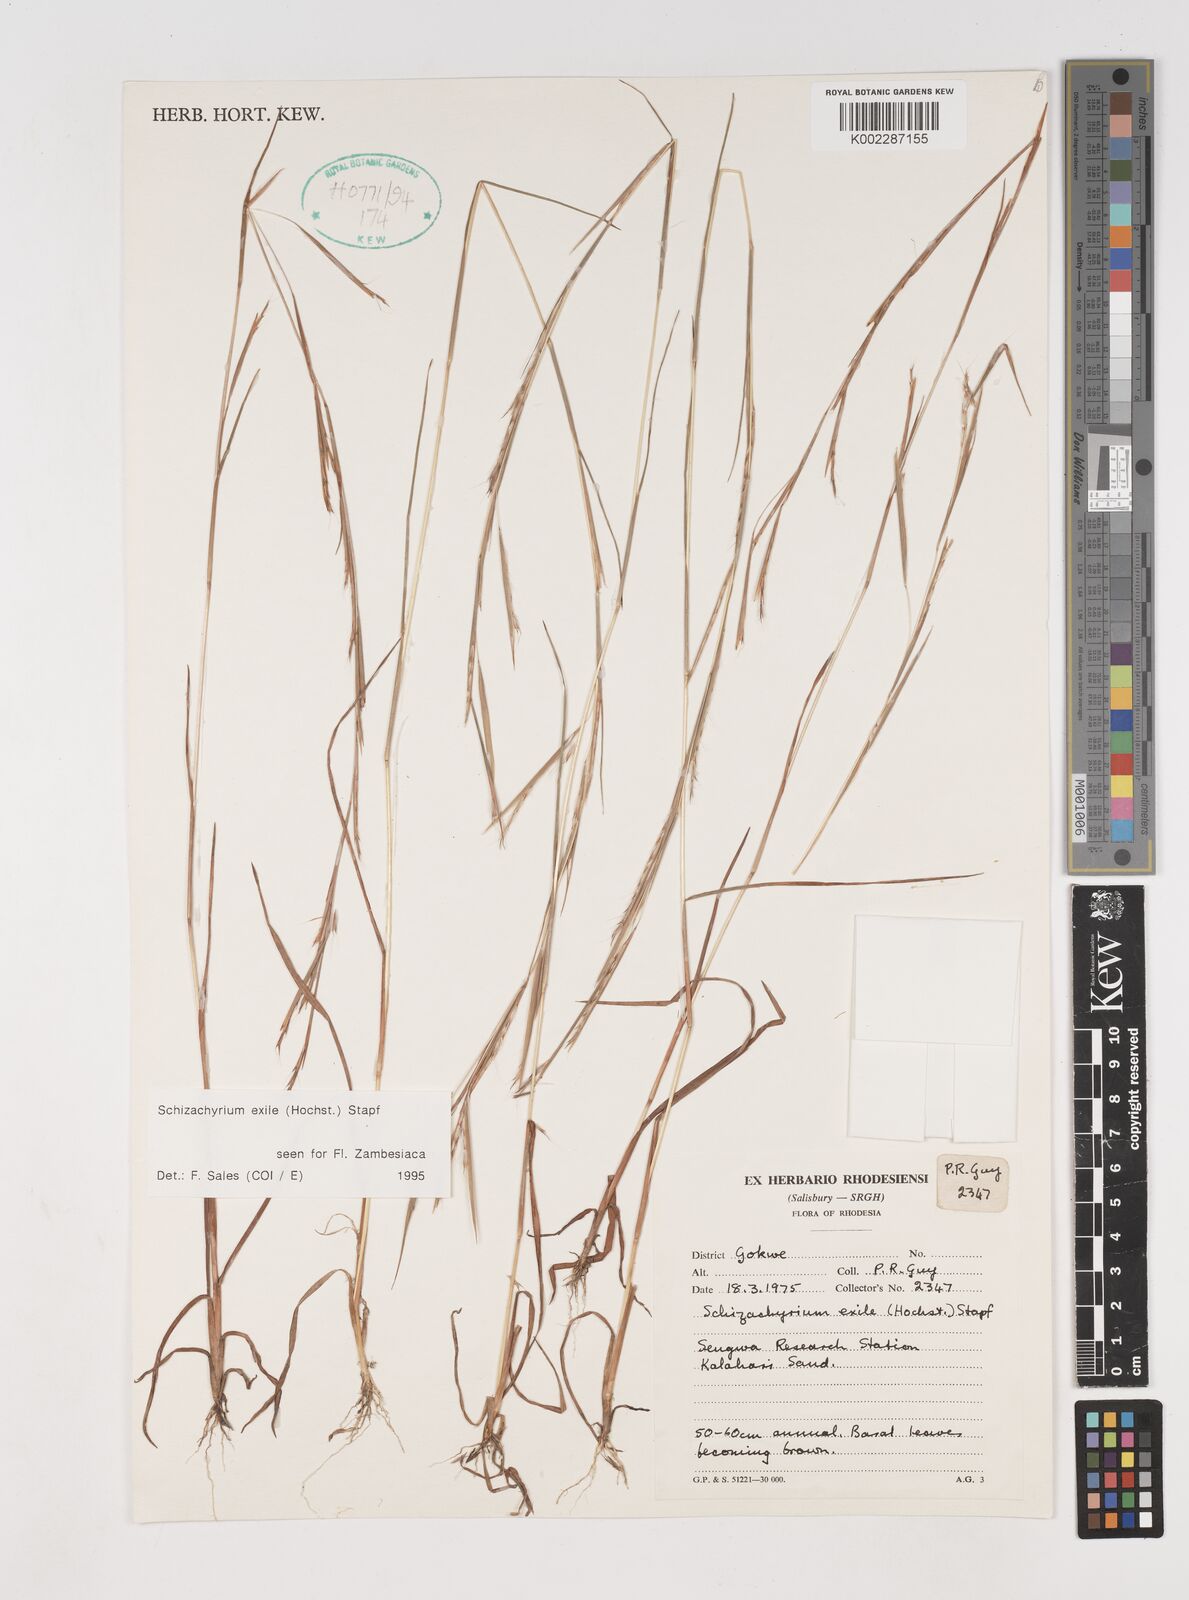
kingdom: Plantae
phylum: Tracheophyta
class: Liliopsida
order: Poales
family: Poaceae
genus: Schizachyrium
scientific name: Schizachyrium exile
